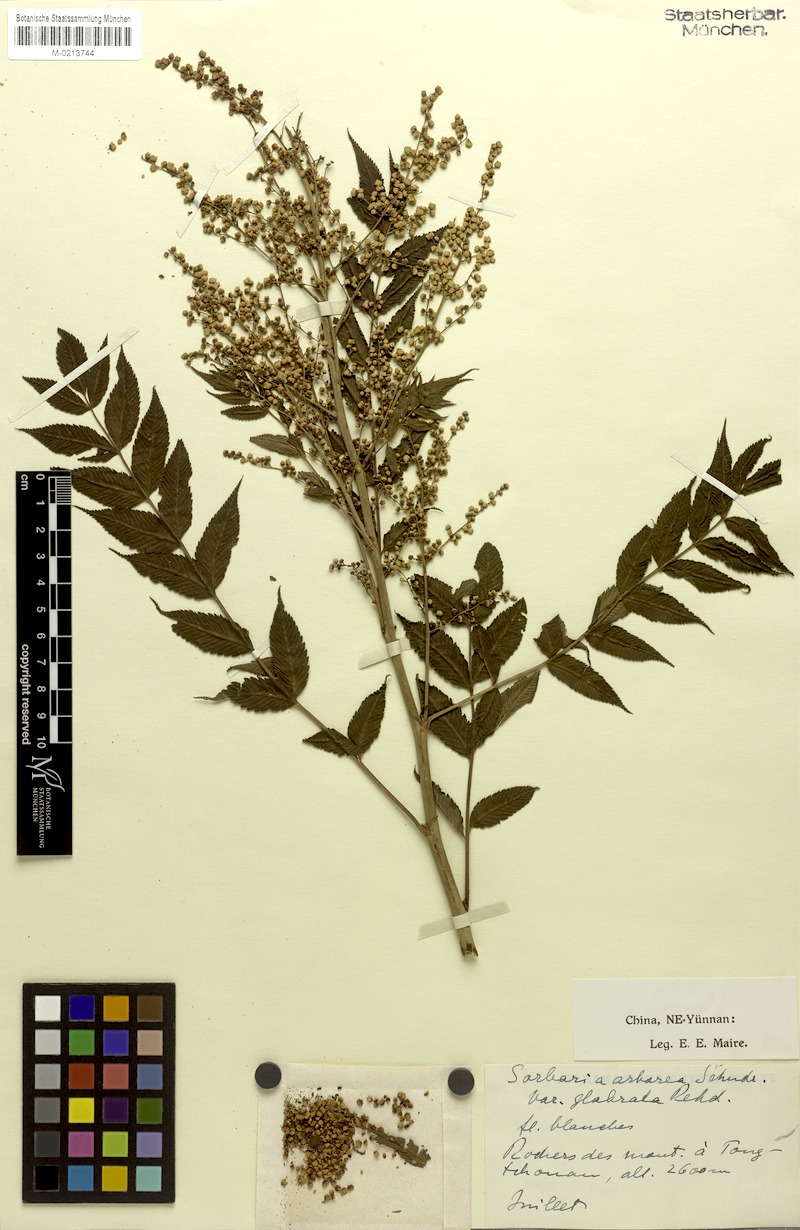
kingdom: Plantae
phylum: Tracheophyta
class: Magnoliopsida
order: Rosales
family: Rosaceae
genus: Sorbaria
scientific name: Sorbaria kirilowii
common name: Chinese sorbaria
